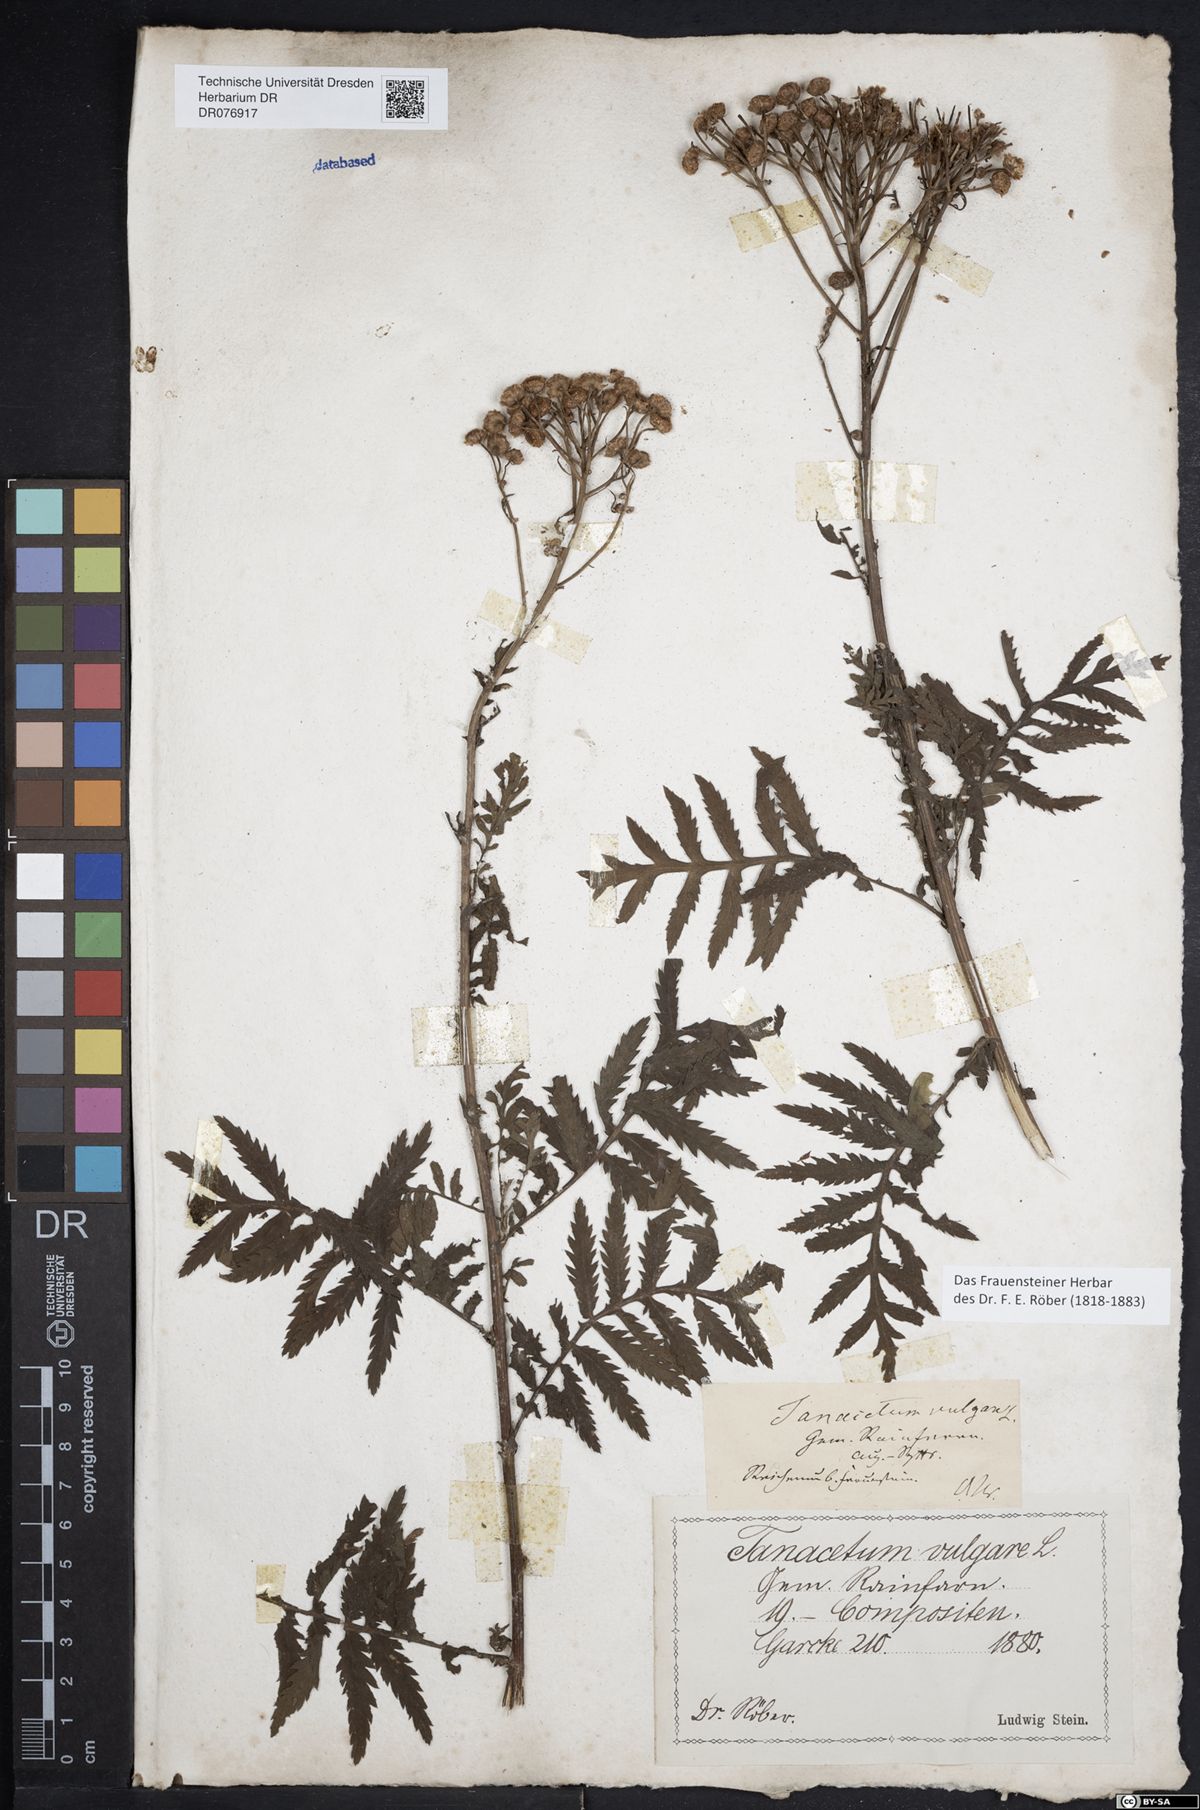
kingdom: Plantae
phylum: Tracheophyta
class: Magnoliopsida
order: Asterales
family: Asteraceae
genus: Tanacetum
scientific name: Tanacetum vulgare
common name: Common tansy
